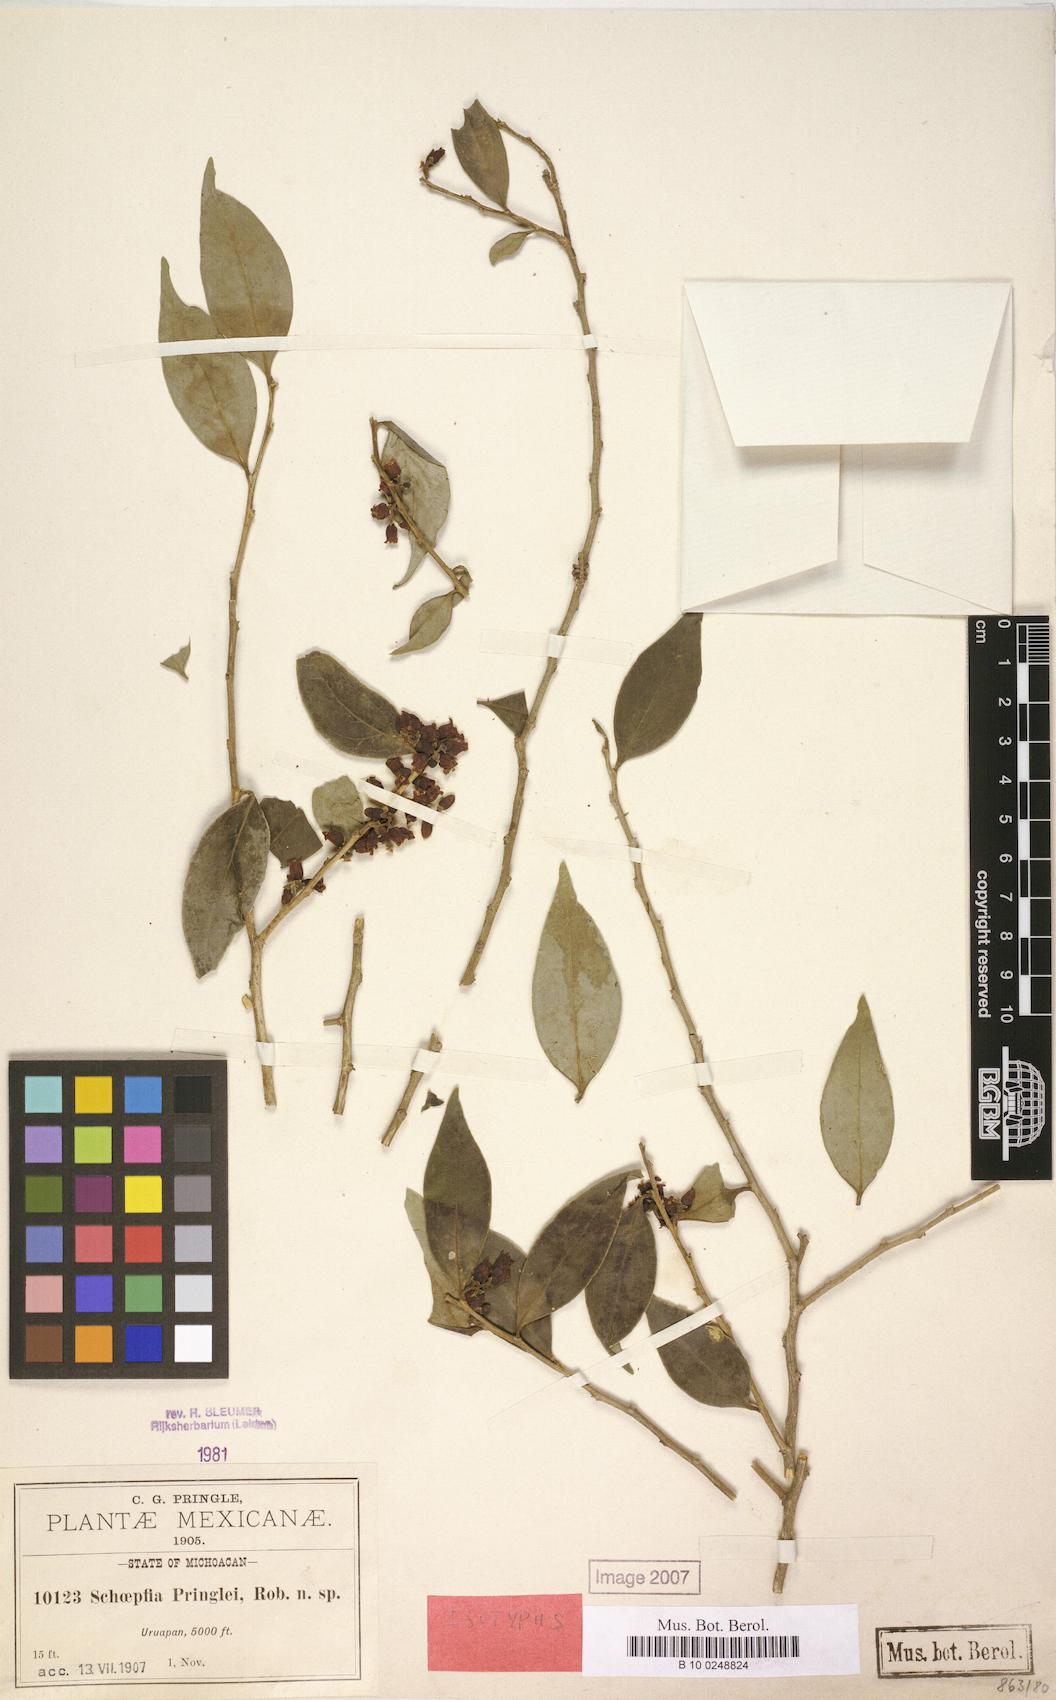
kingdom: Plantae
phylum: Tracheophyta
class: Magnoliopsida
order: Santalales
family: Schoepfiaceae
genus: Schoepfia
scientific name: Schoepfia pringlei
